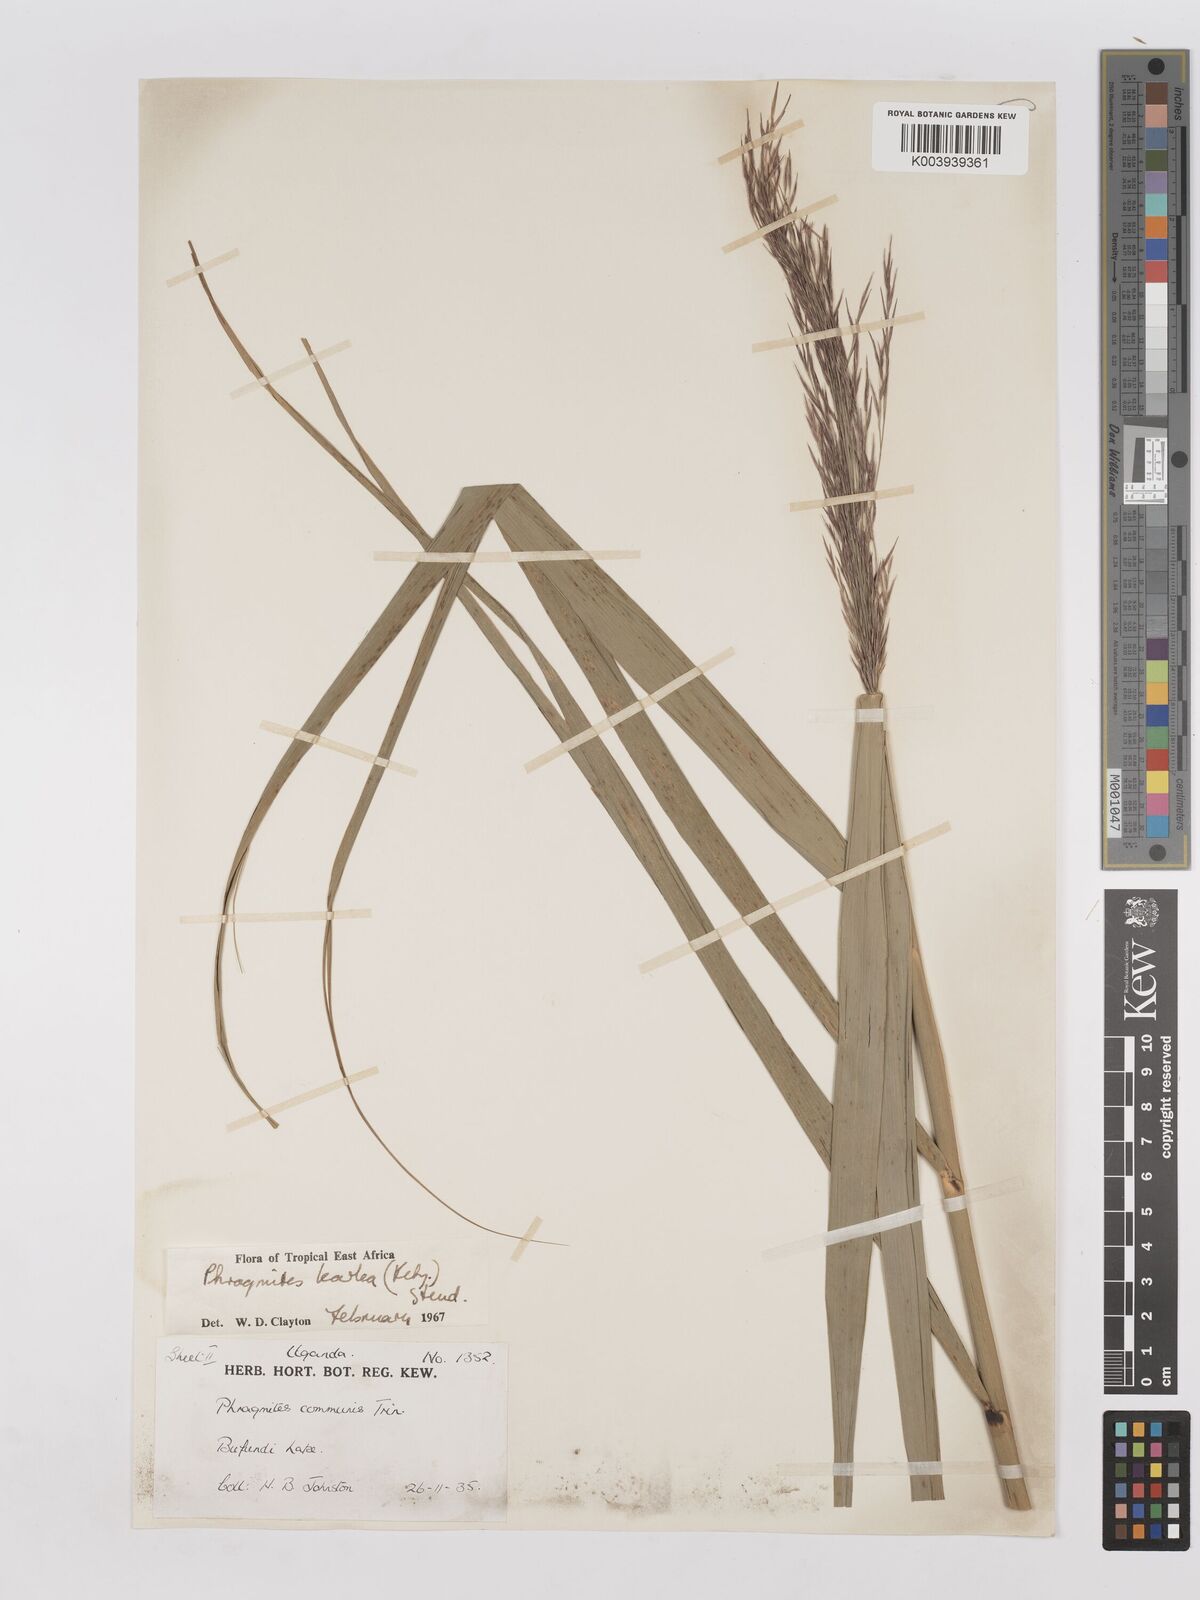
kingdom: Plantae
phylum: Tracheophyta
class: Liliopsida
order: Poales
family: Poaceae
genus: Phragmites
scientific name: Phragmites karka
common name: Tropical reed
